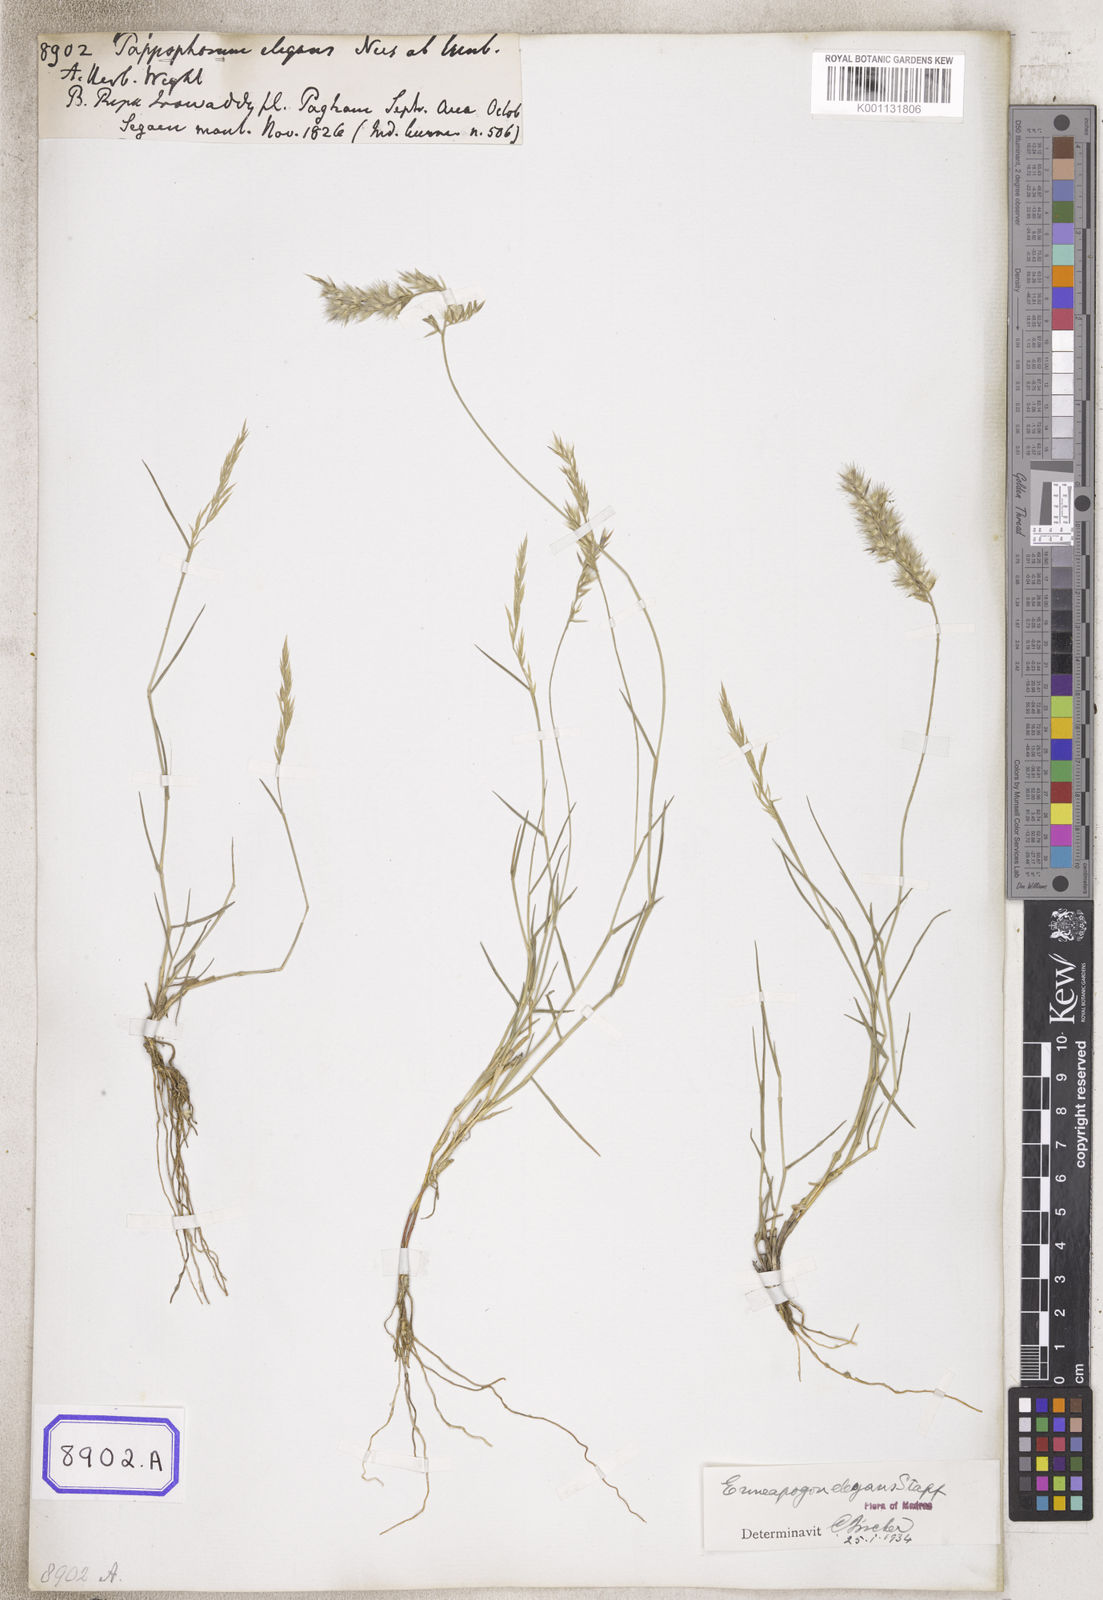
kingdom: Plantae
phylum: Tracheophyta
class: Liliopsida
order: Poales
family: Poaceae
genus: Pappophorum
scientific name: Pappophorum
